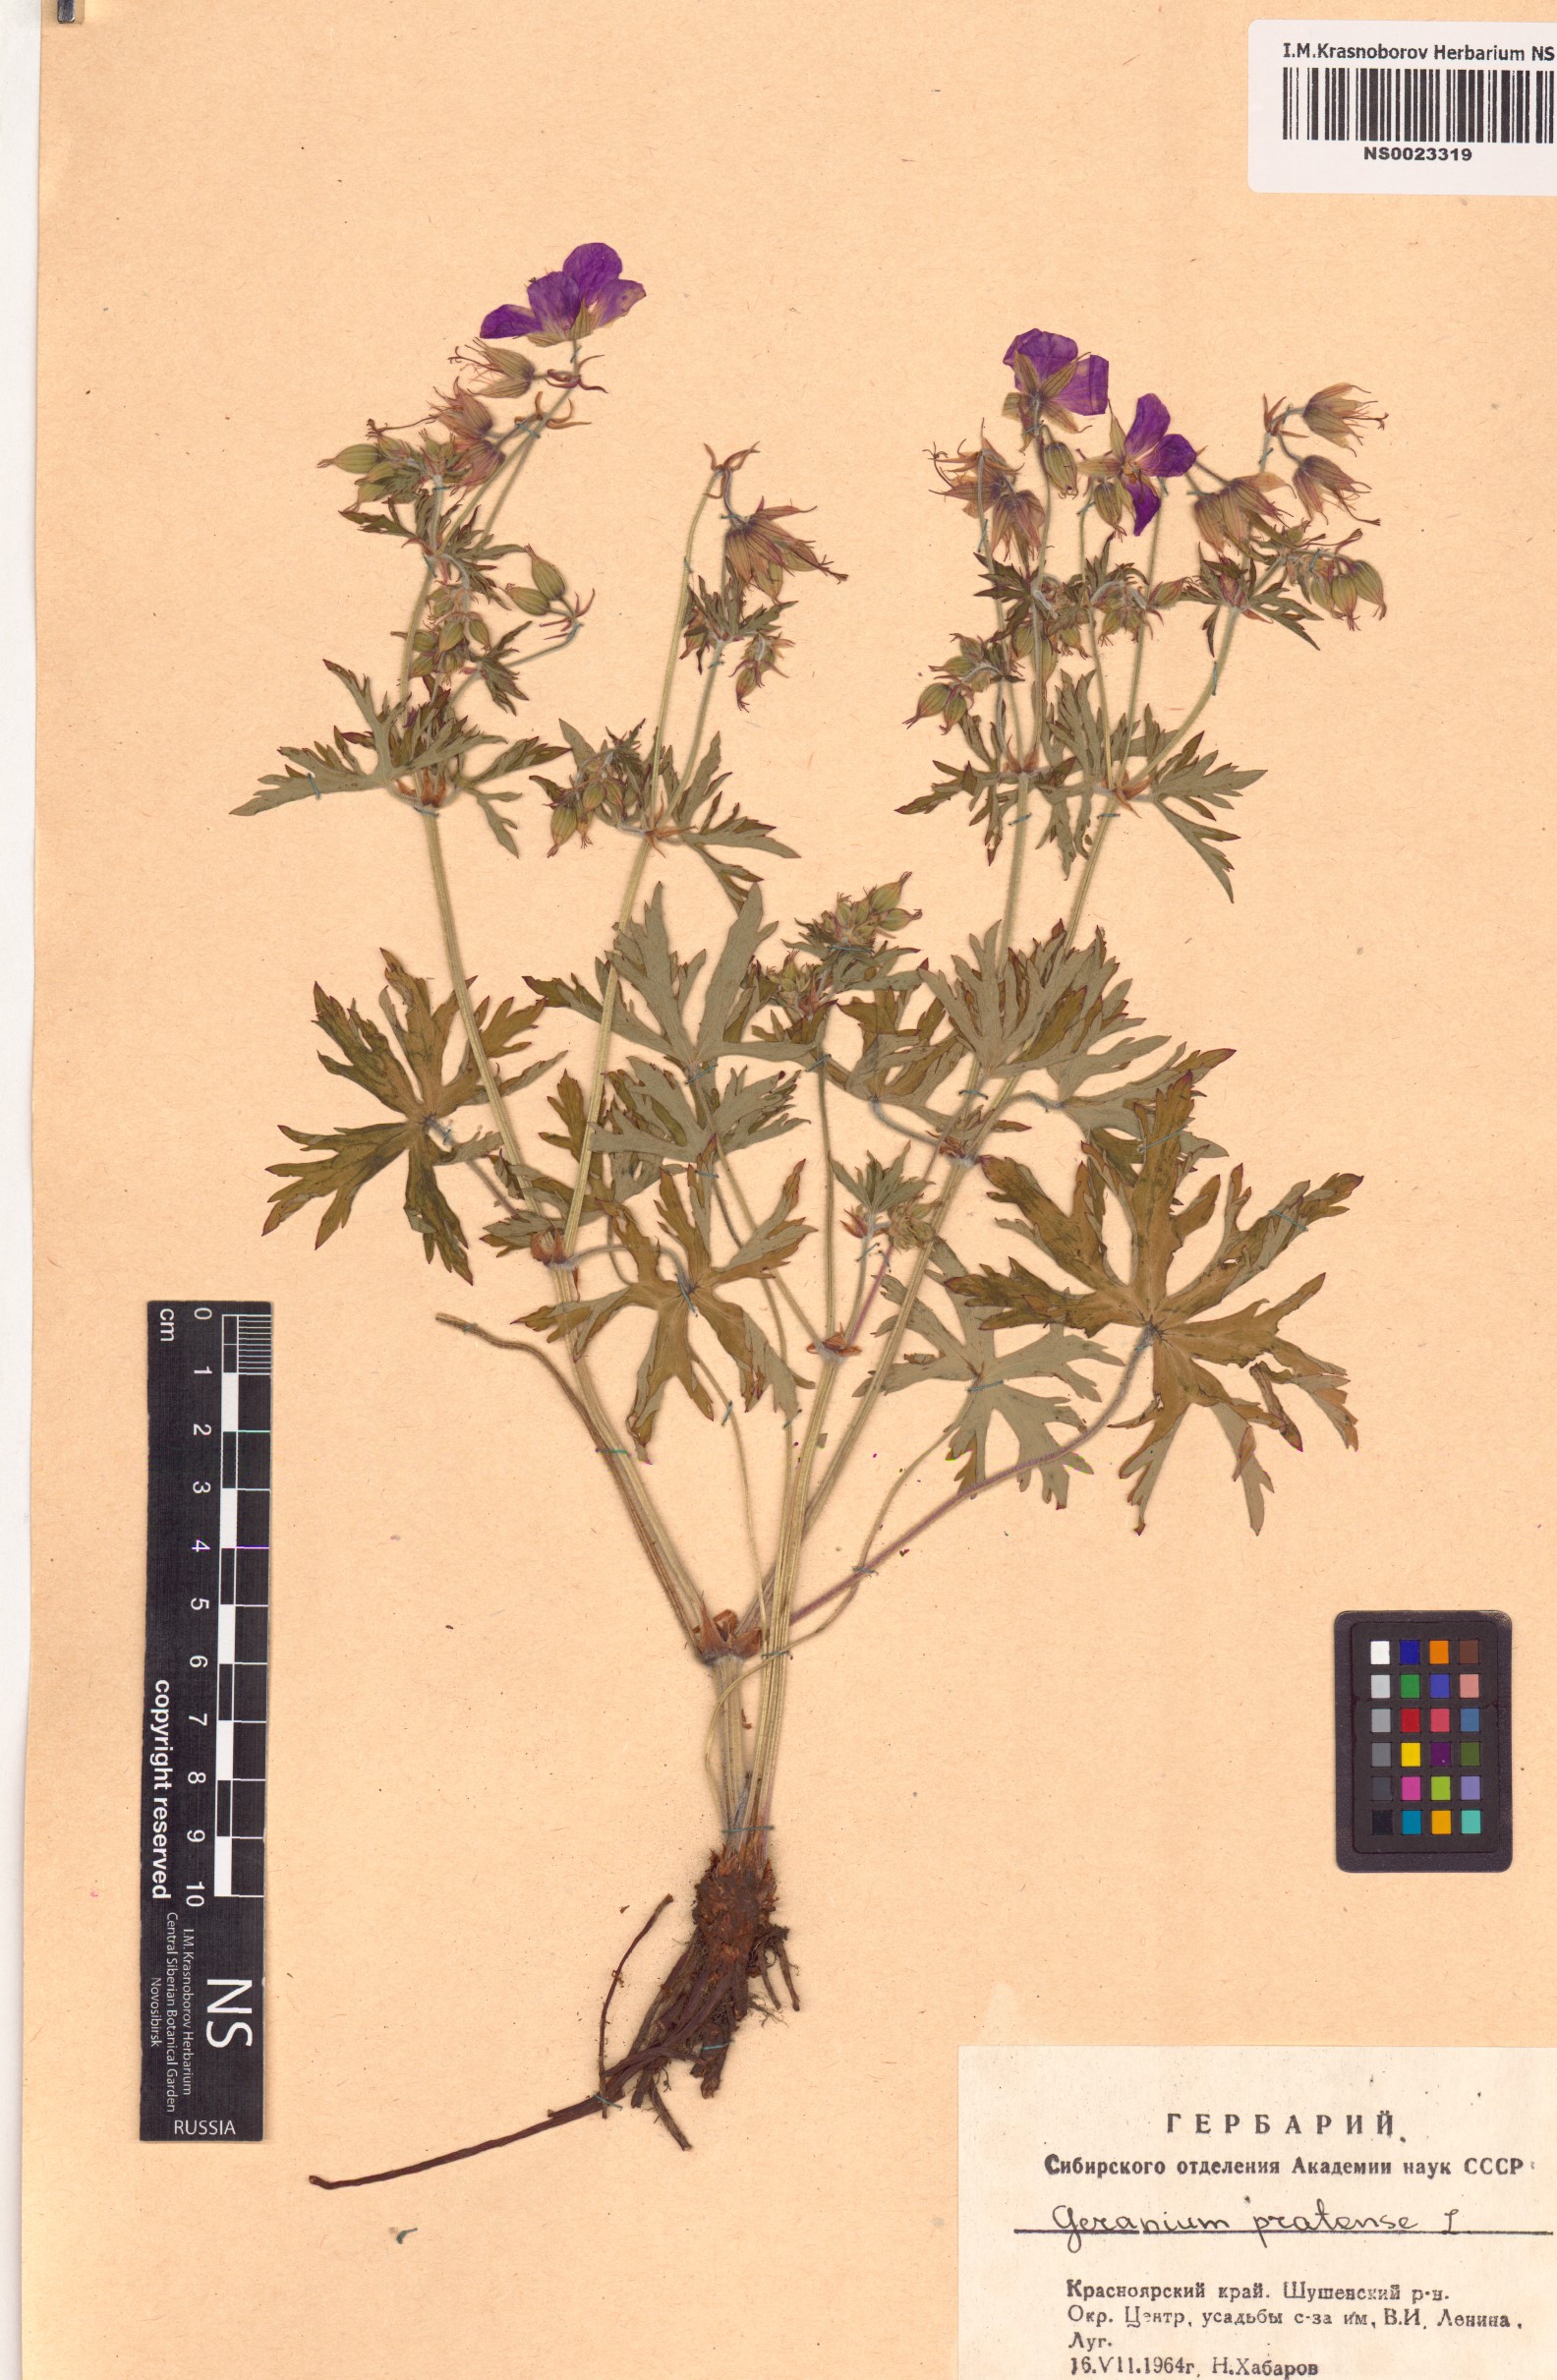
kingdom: Plantae
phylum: Tracheophyta
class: Magnoliopsida
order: Geraniales
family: Geraniaceae
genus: Geranium
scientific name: Geranium pratense
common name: Meadow crane's-bill
